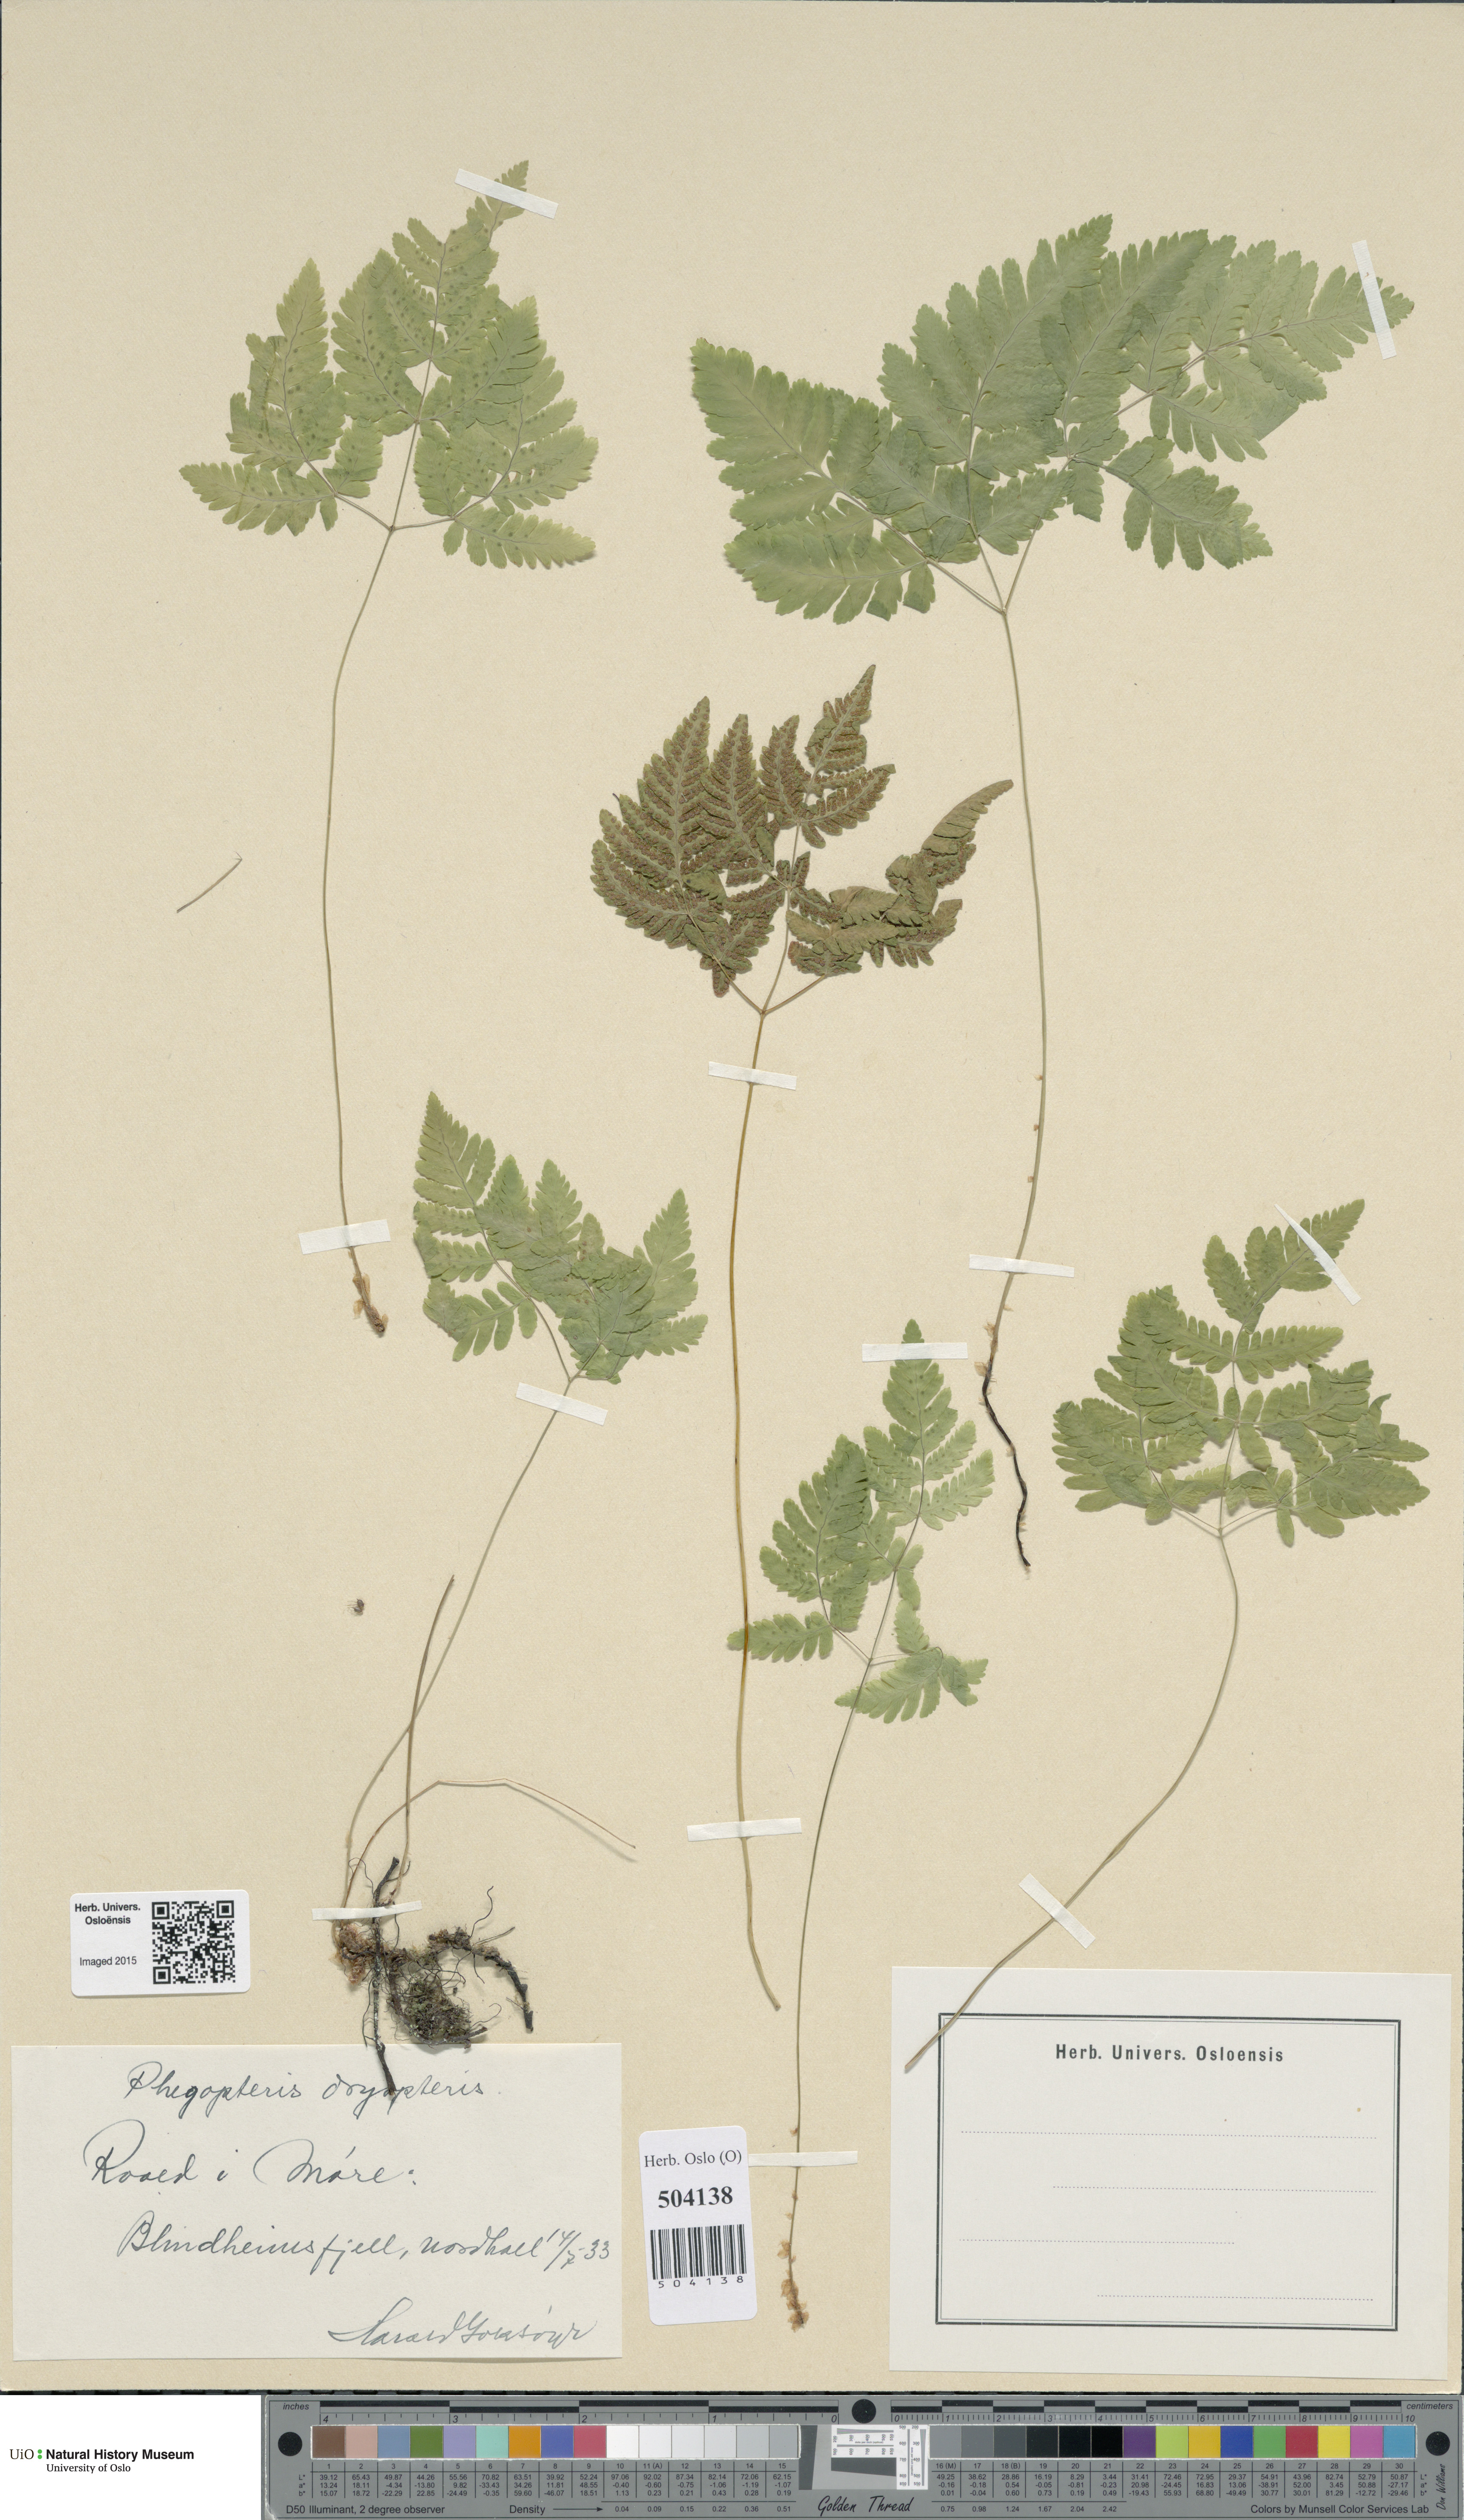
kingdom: Plantae
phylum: Tracheophyta
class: Polypodiopsida
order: Polypodiales
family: Cystopteridaceae
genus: Gymnocarpium
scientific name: Gymnocarpium dryopteris
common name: Oak fern
